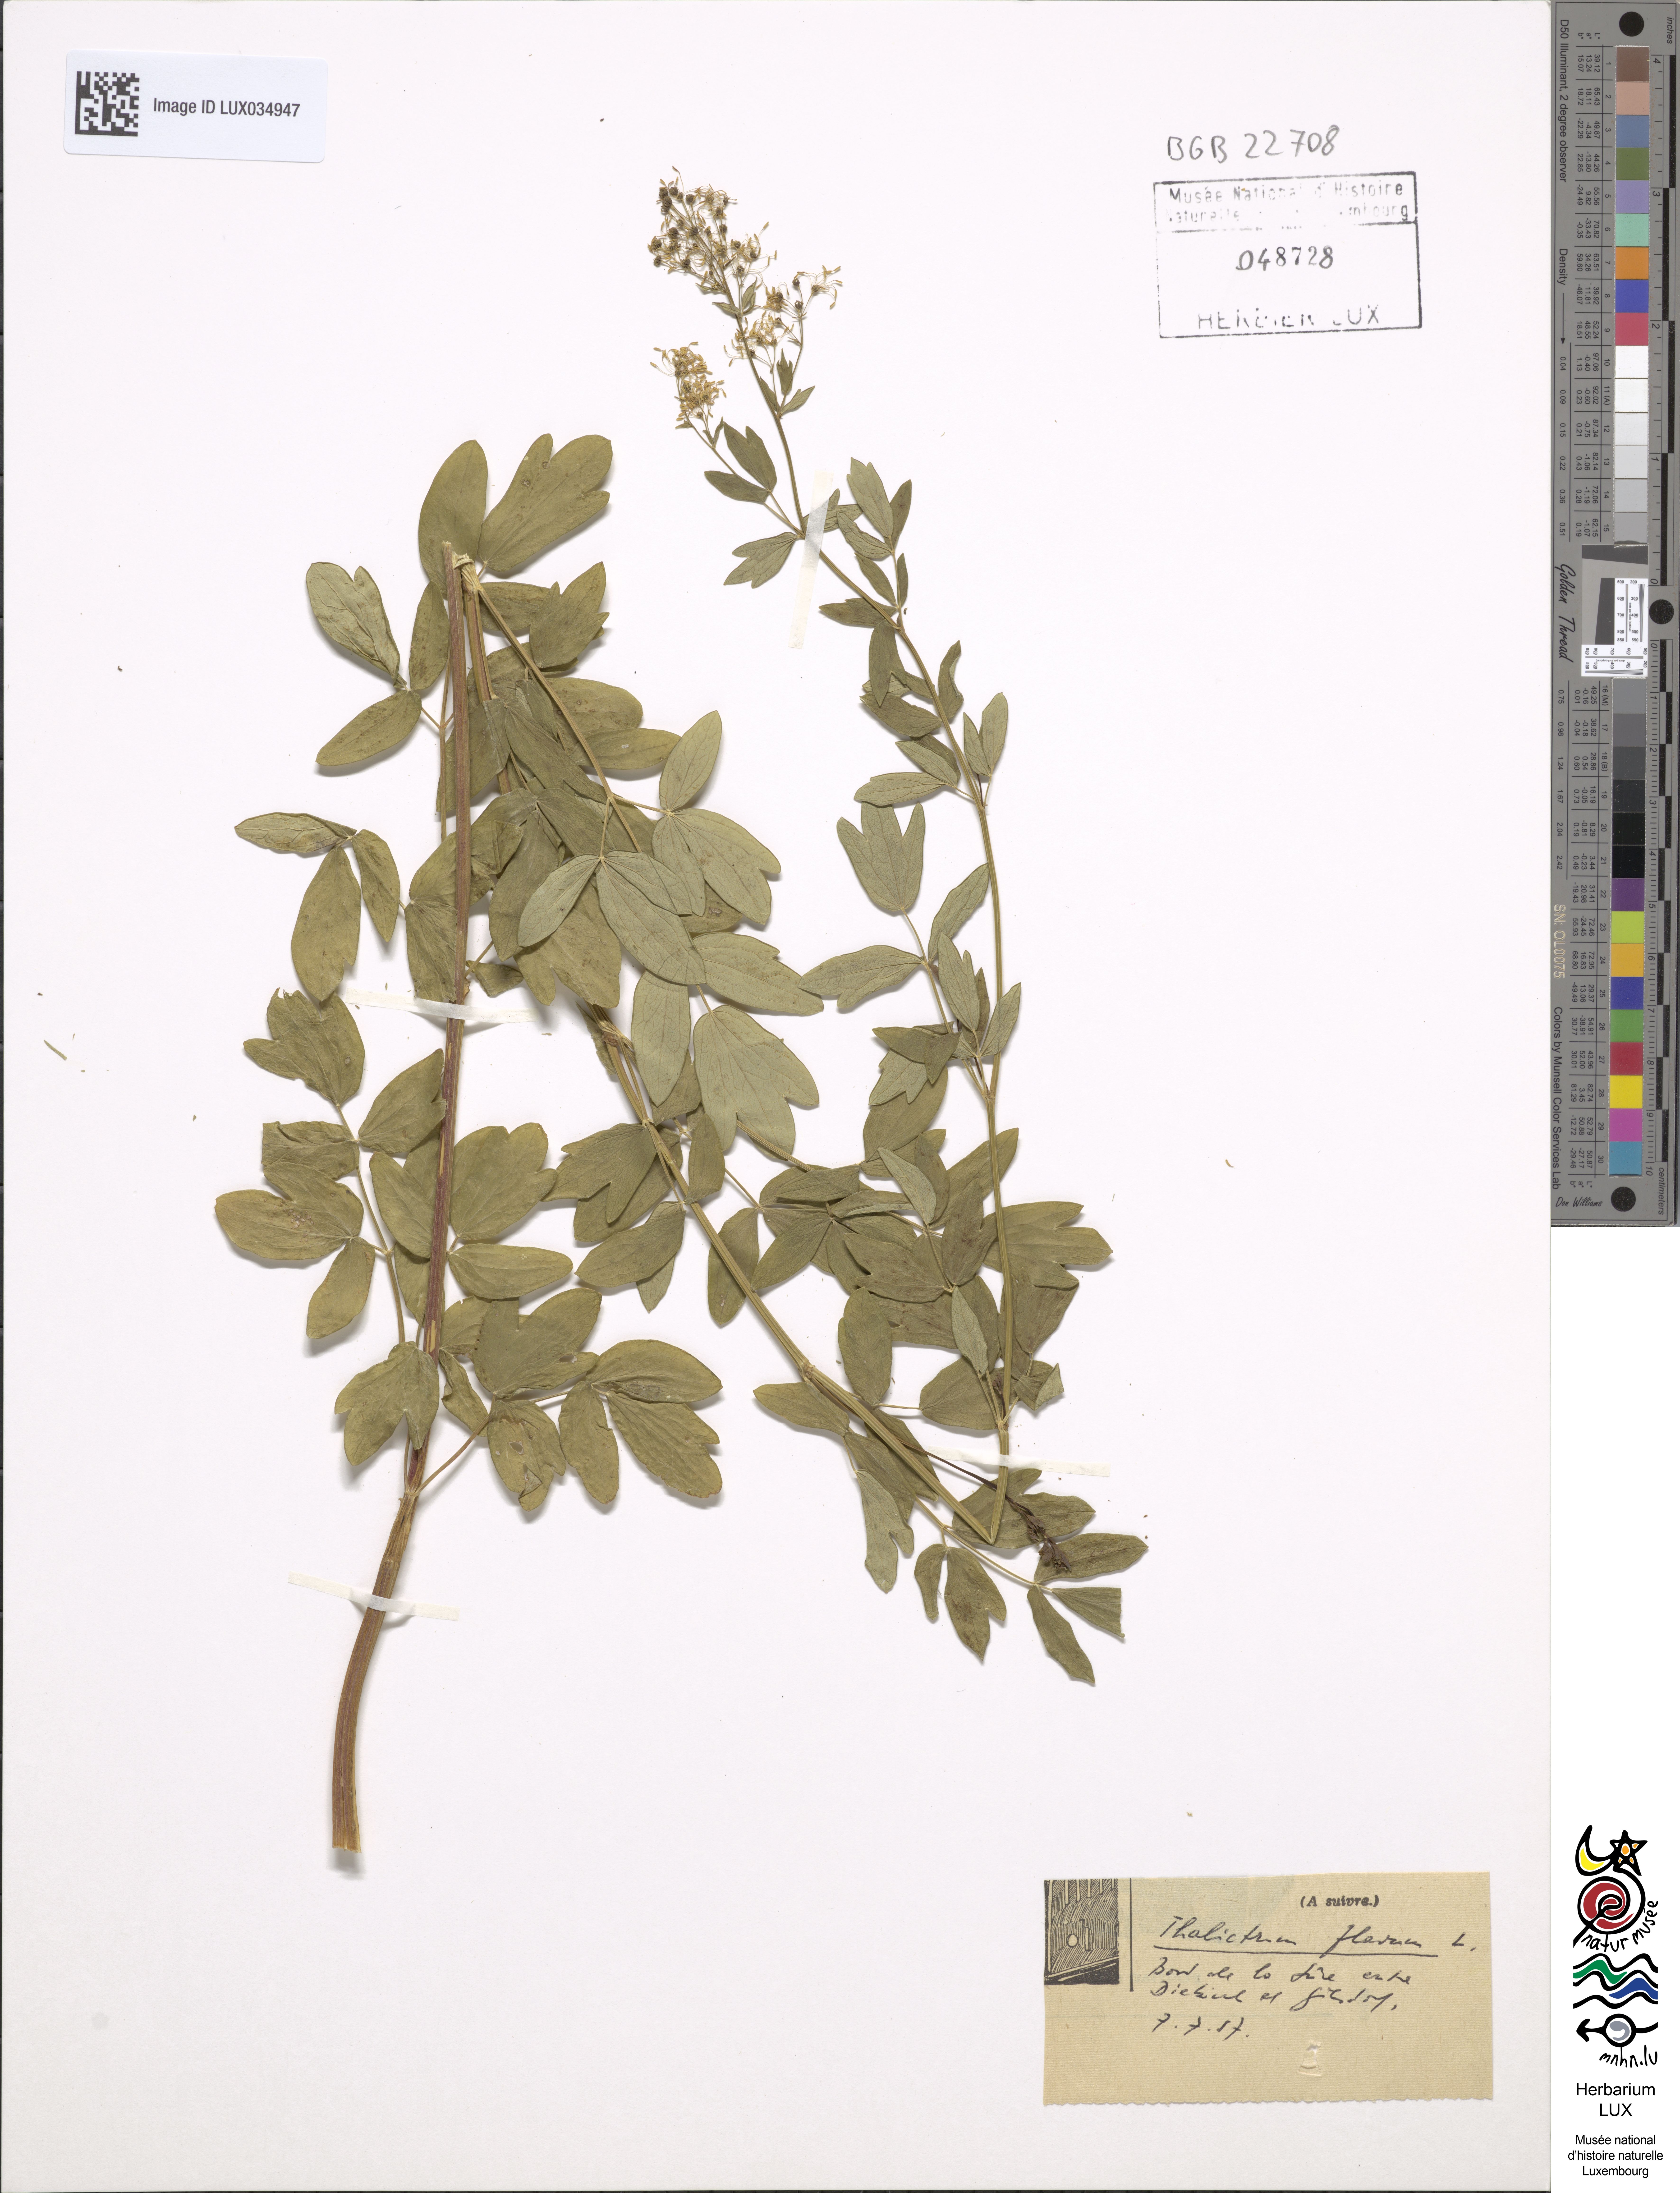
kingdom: Plantae
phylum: Tracheophyta
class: Magnoliopsida
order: Ranunculales
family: Ranunculaceae
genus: Thalictrum
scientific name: Thalictrum flavum
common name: Common meadow-rue
